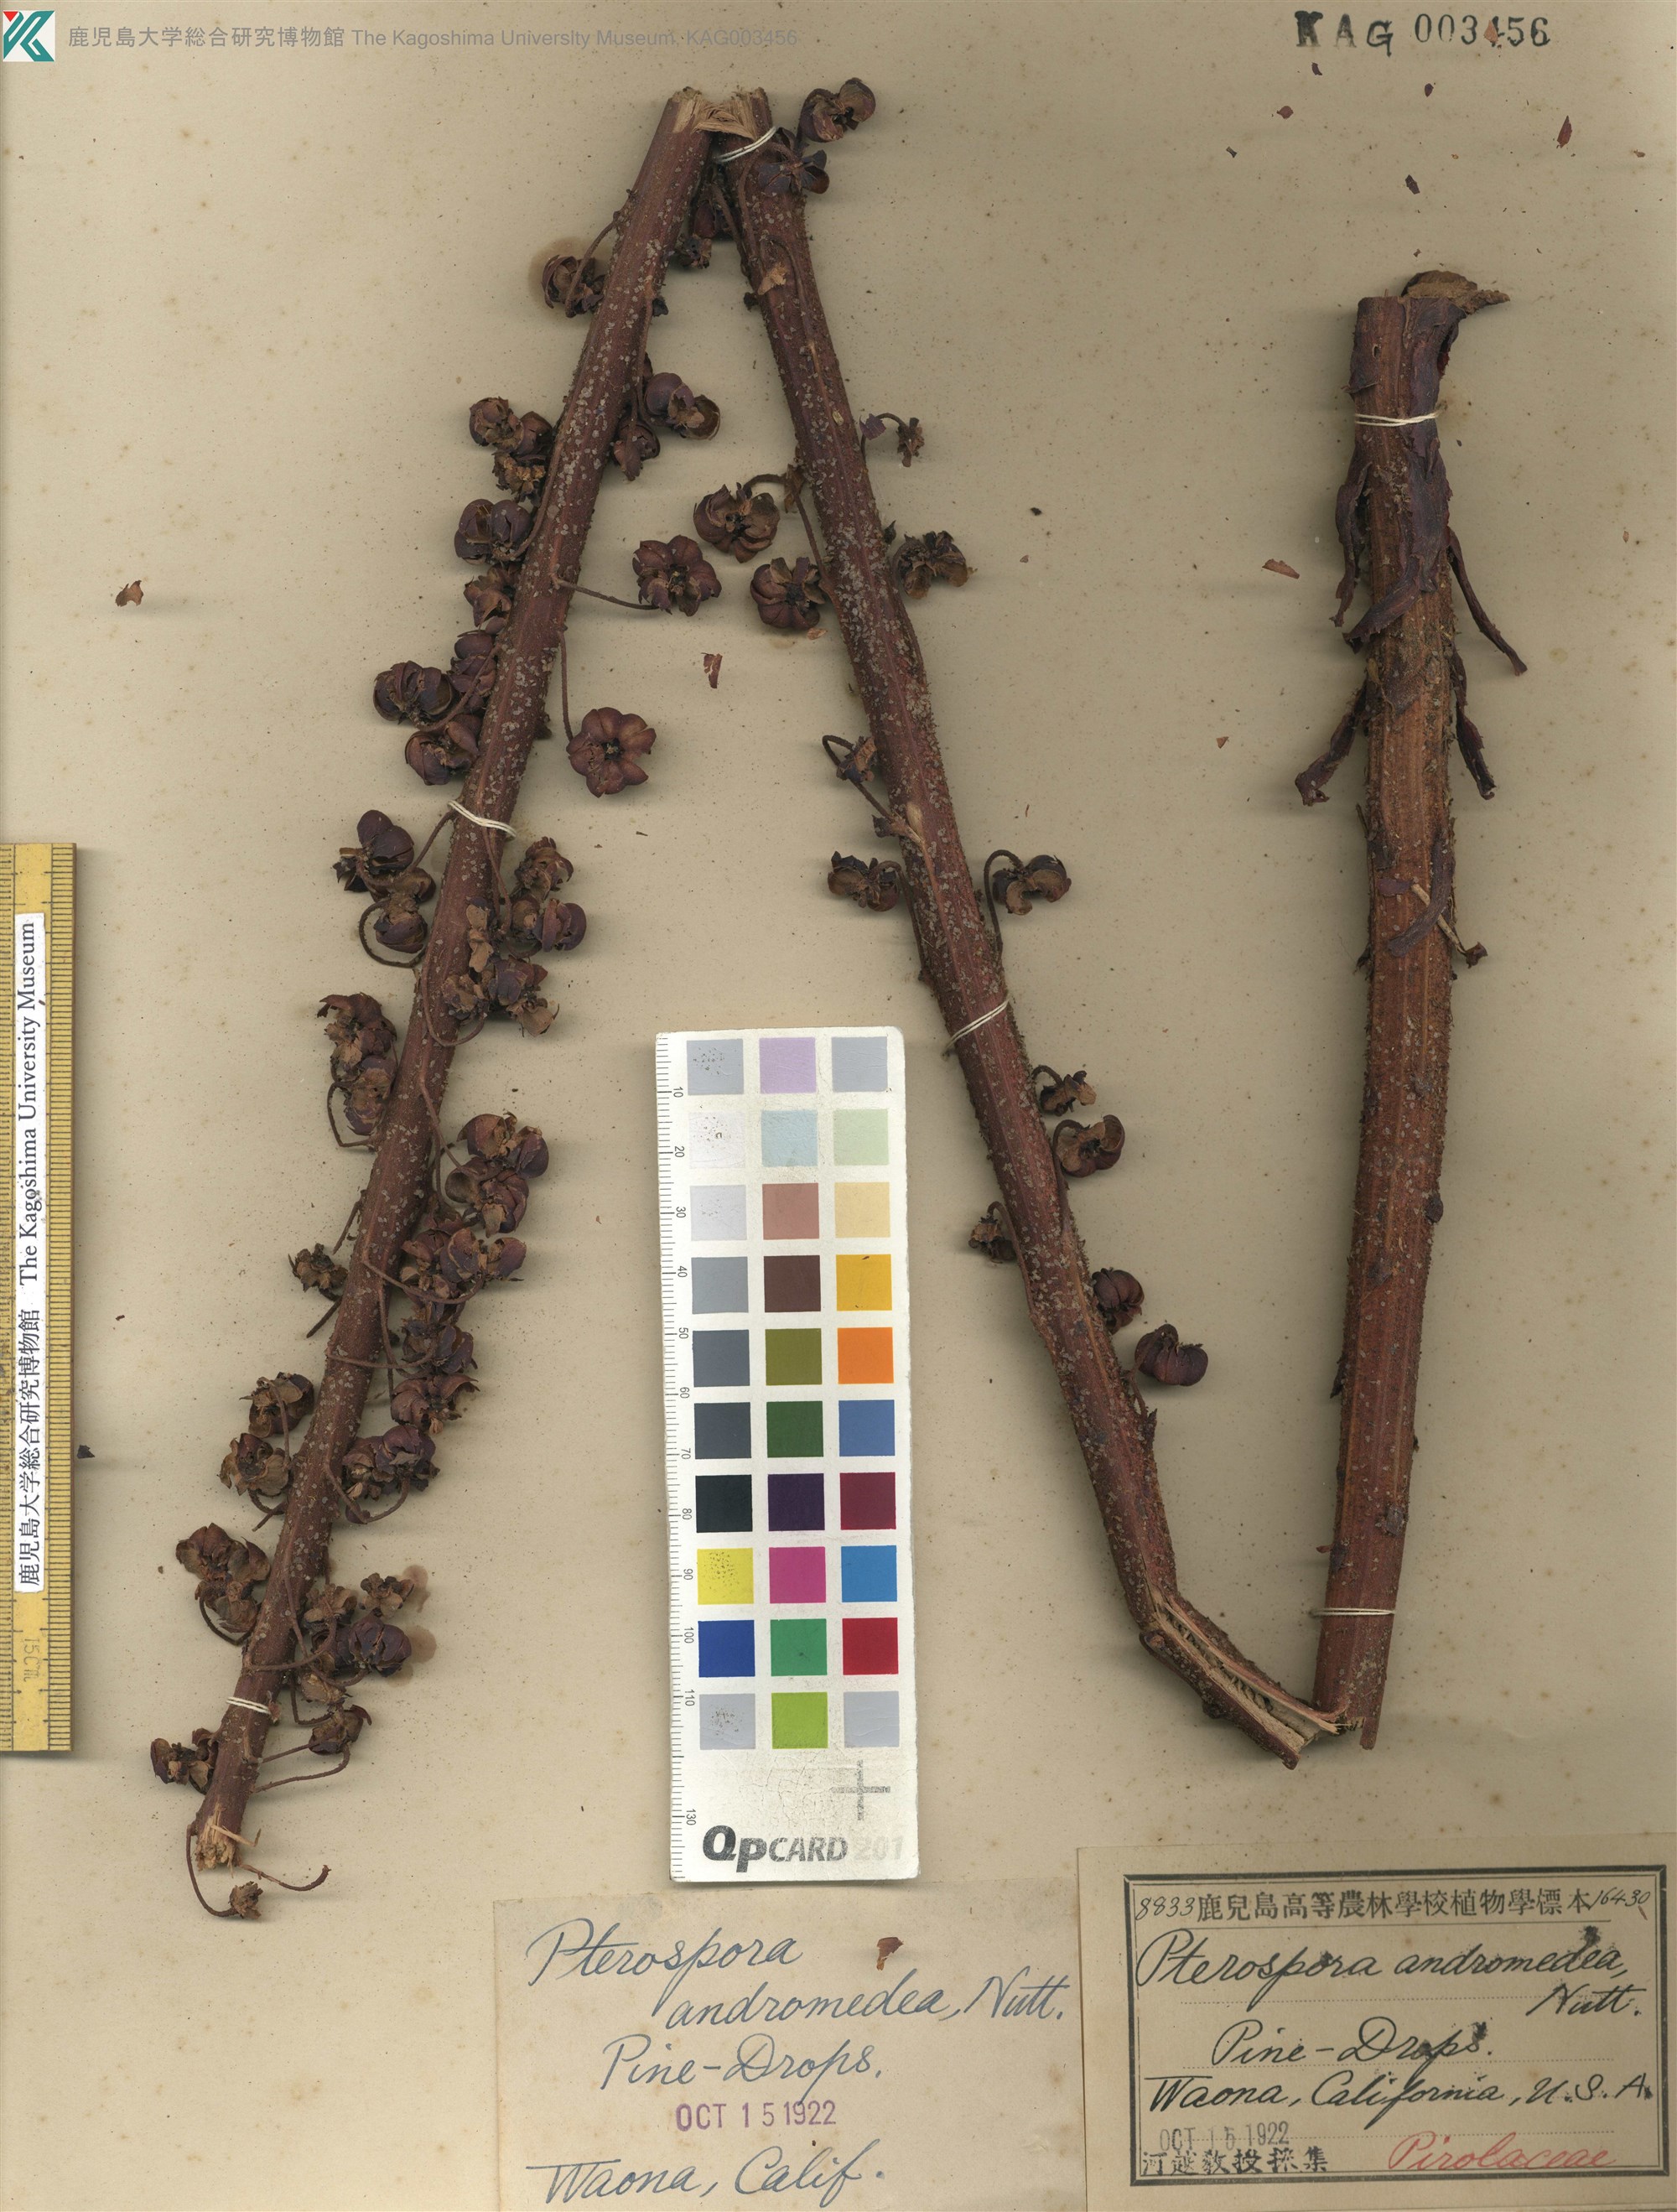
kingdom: Plantae
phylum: Tracheophyta
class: Magnoliopsida
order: Ericales
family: Ericaceae
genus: Pterospora
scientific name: Pterospora andromedea
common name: Giant bird's-nest
